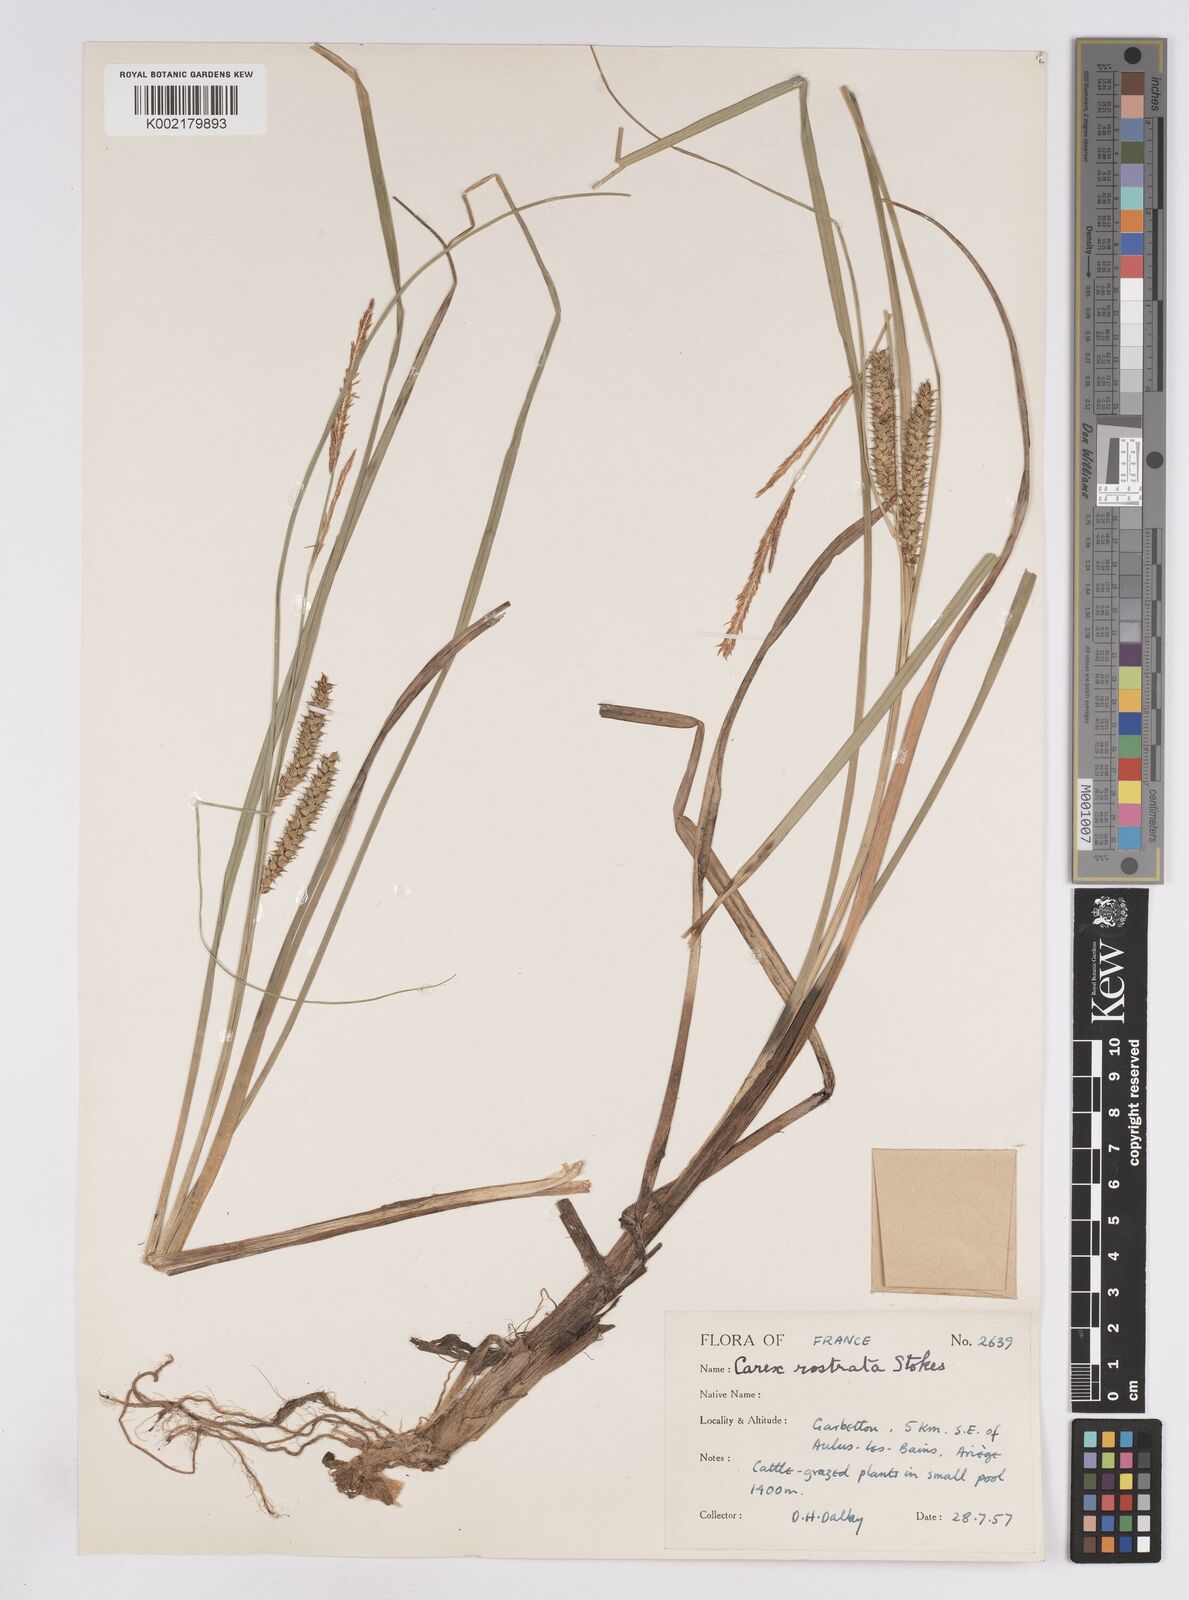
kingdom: Plantae
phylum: Tracheophyta
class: Liliopsida
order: Poales
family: Cyperaceae
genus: Carex
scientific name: Carex rostrata
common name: Bottle sedge
